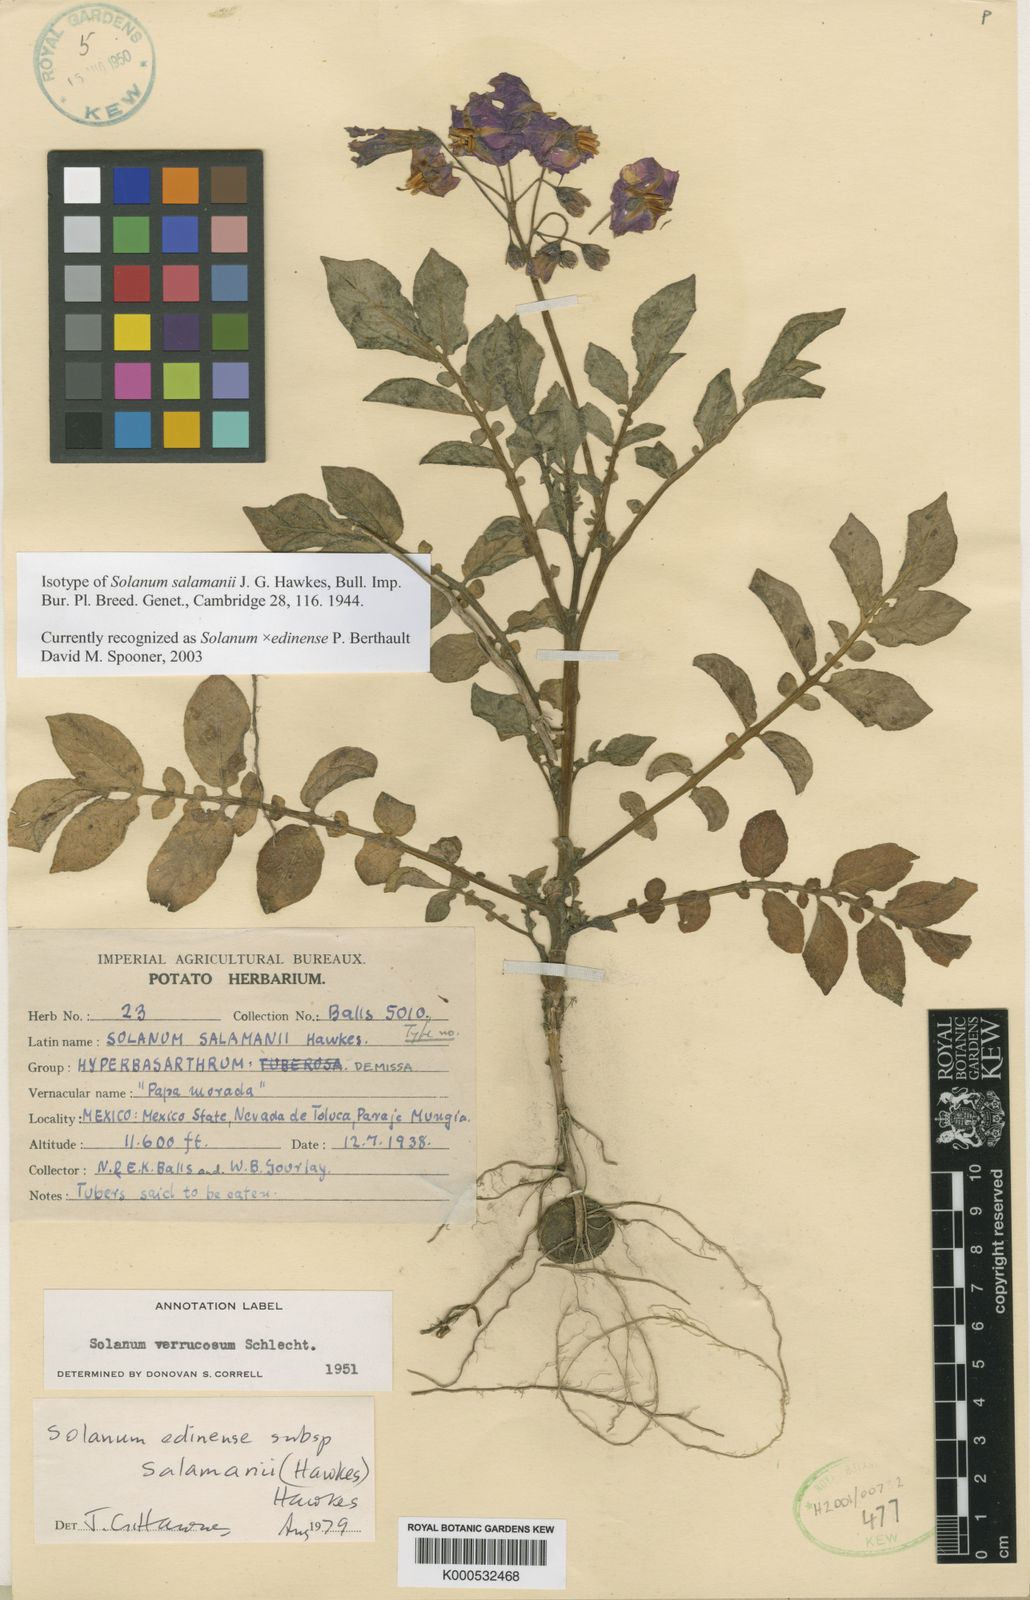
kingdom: Plantae
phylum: Tracheophyta
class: Magnoliopsida
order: Solanales
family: Solanaceae
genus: Solanum
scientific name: Solanum
